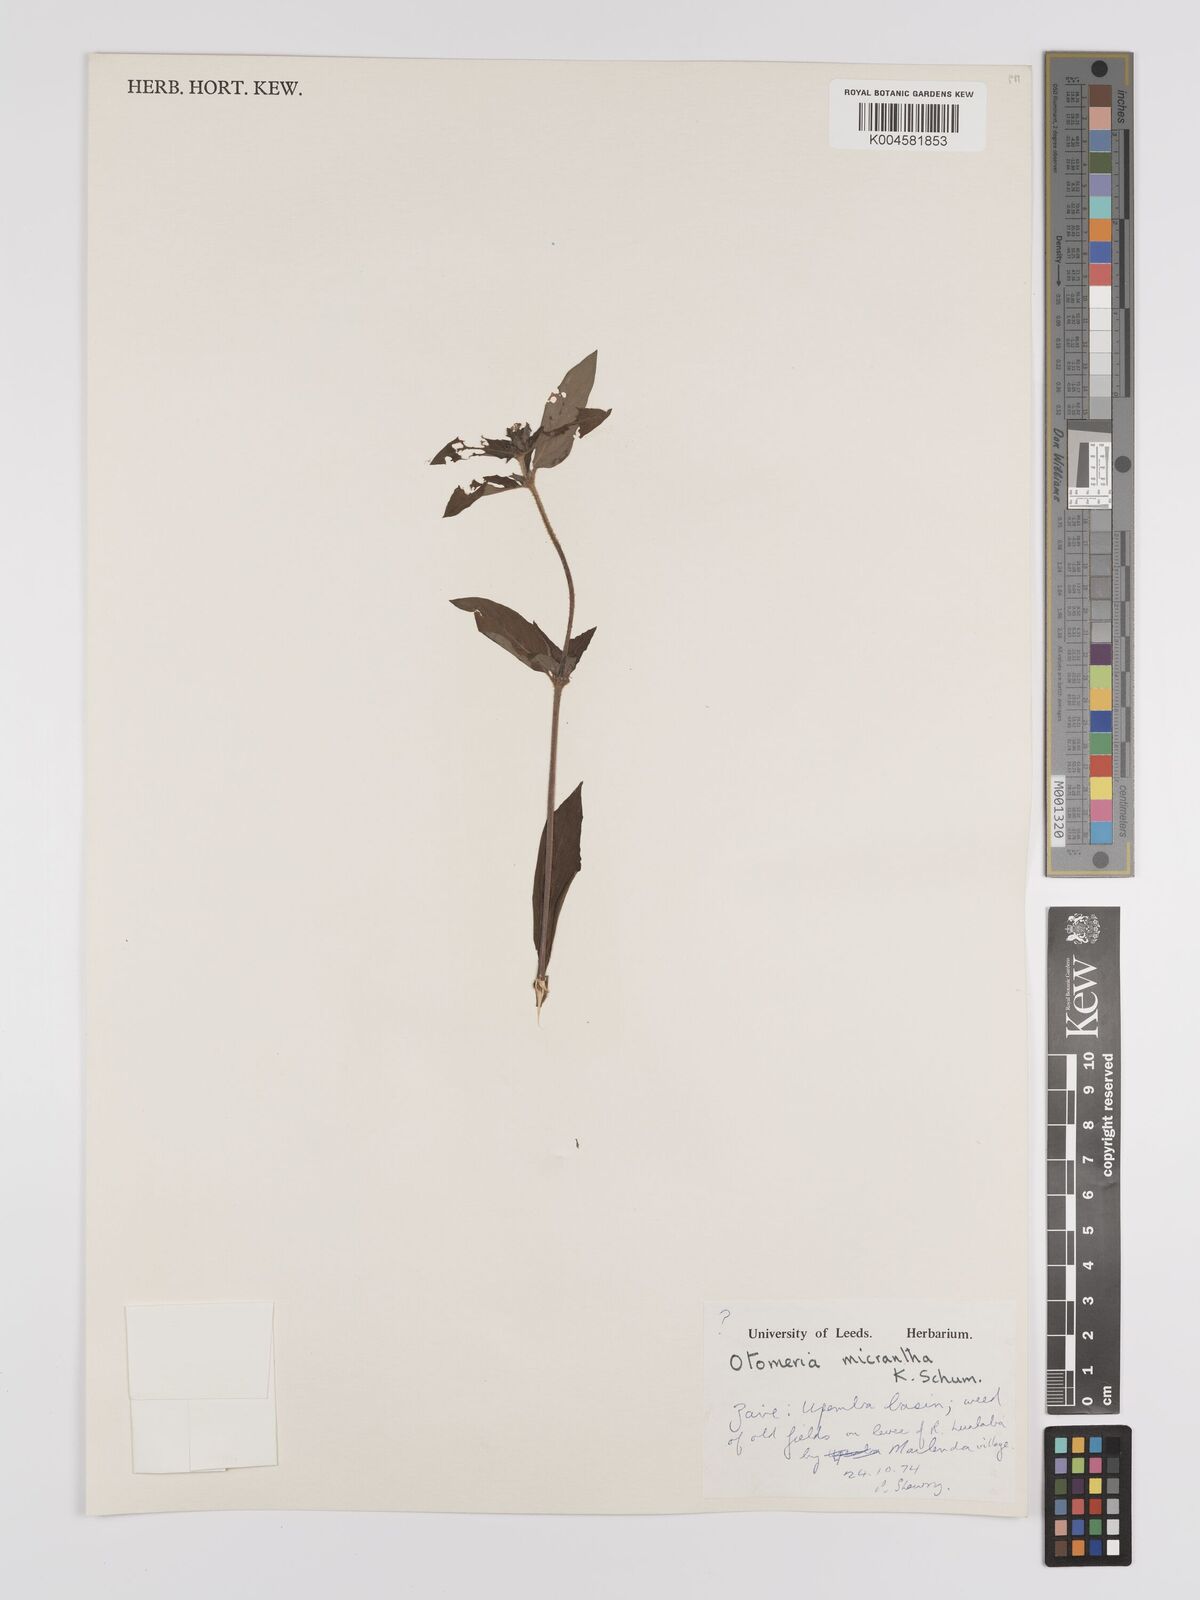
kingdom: Plantae
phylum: Tracheophyta
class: Magnoliopsida
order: Gentianales
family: Rubiaceae
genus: Otomeria
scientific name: Otomeria micrantha
